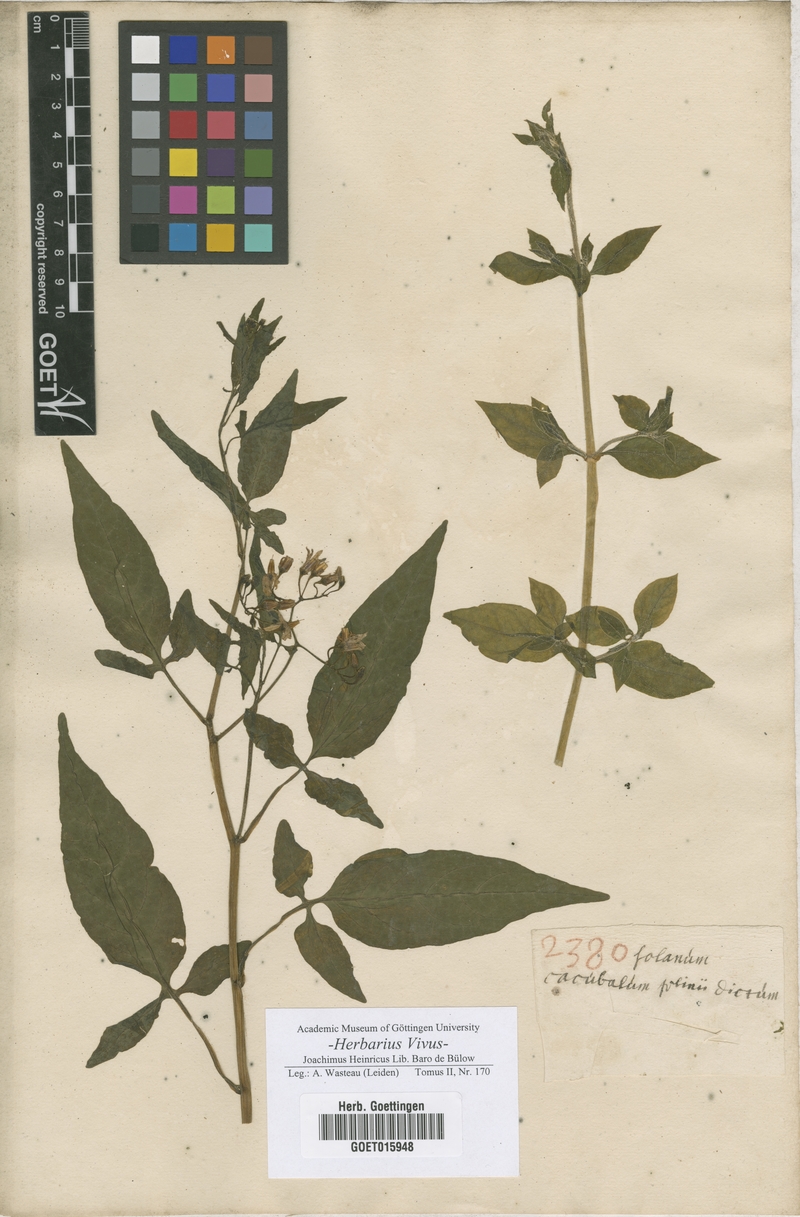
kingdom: Plantae
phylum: Tracheophyta
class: Magnoliopsida
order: Solanales
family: Solanaceae
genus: Solanum
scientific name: Solanum
